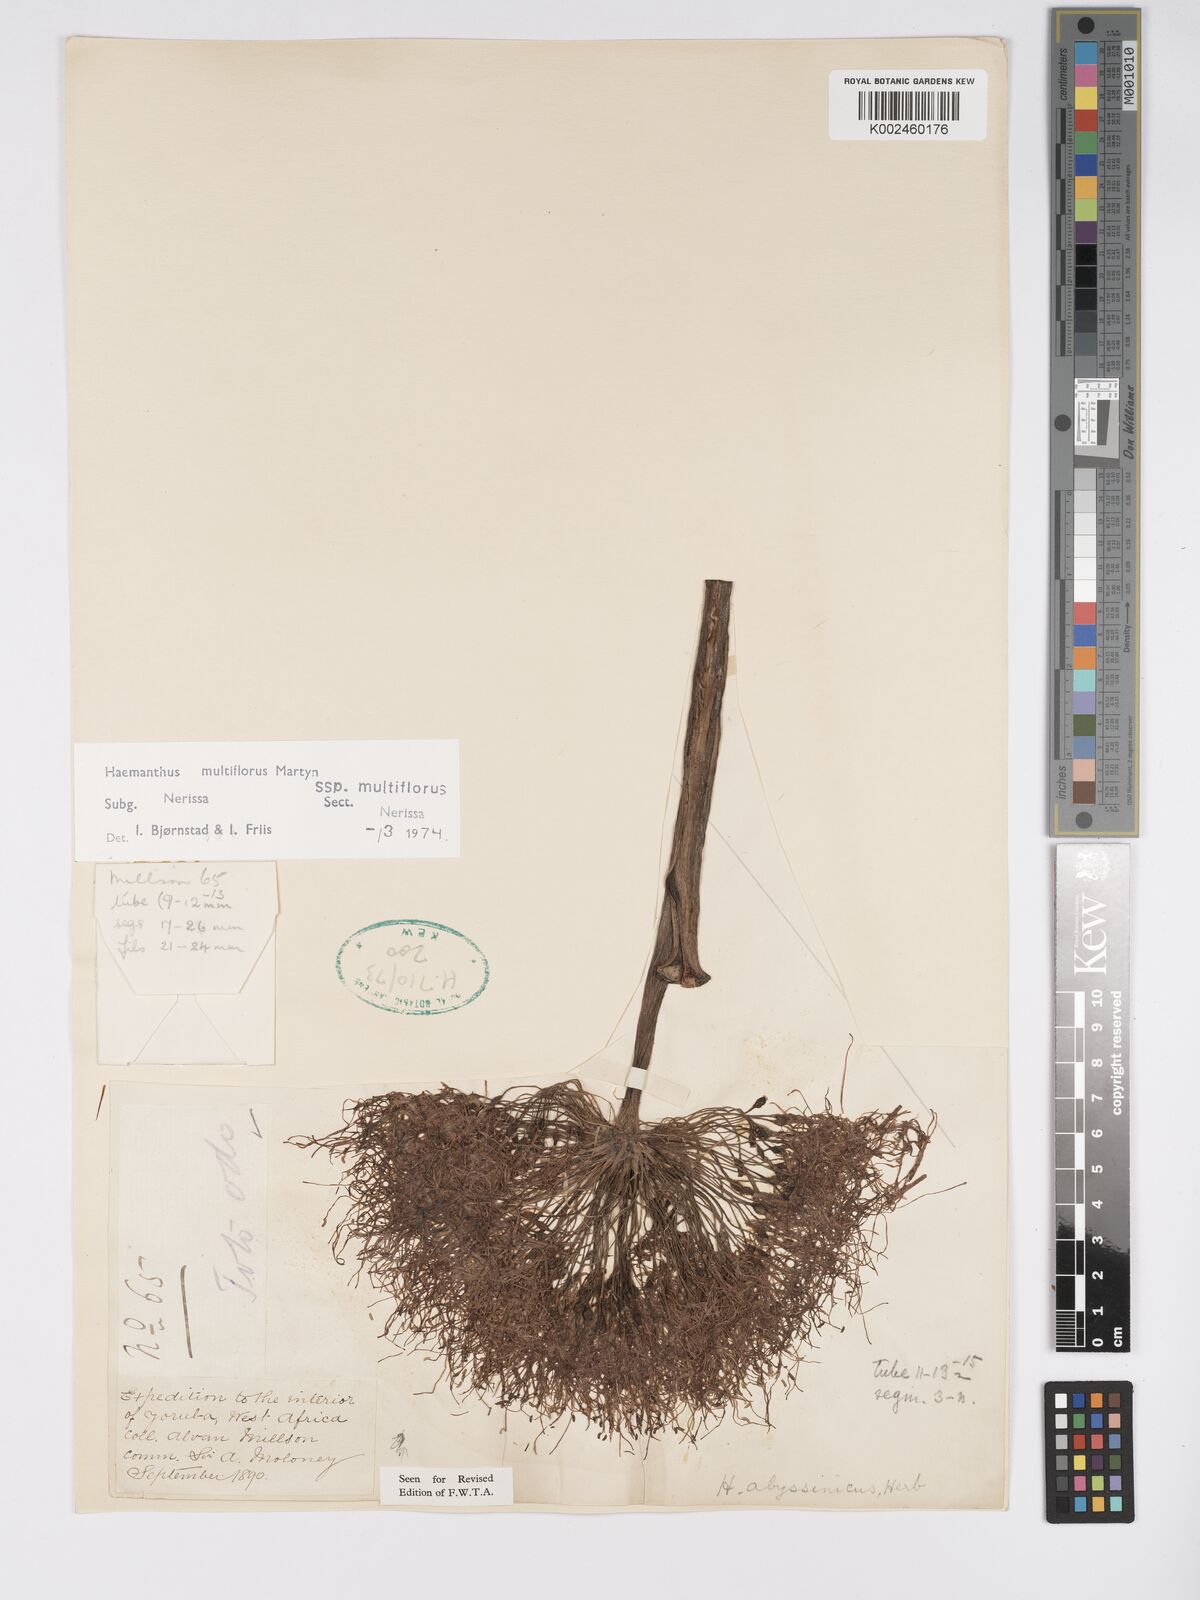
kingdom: Plantae
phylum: Tracheophyta
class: Liliopsida
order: Asparagales
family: Amaryllidaceae
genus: Scadoxus
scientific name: Scadoxus multiflorus
